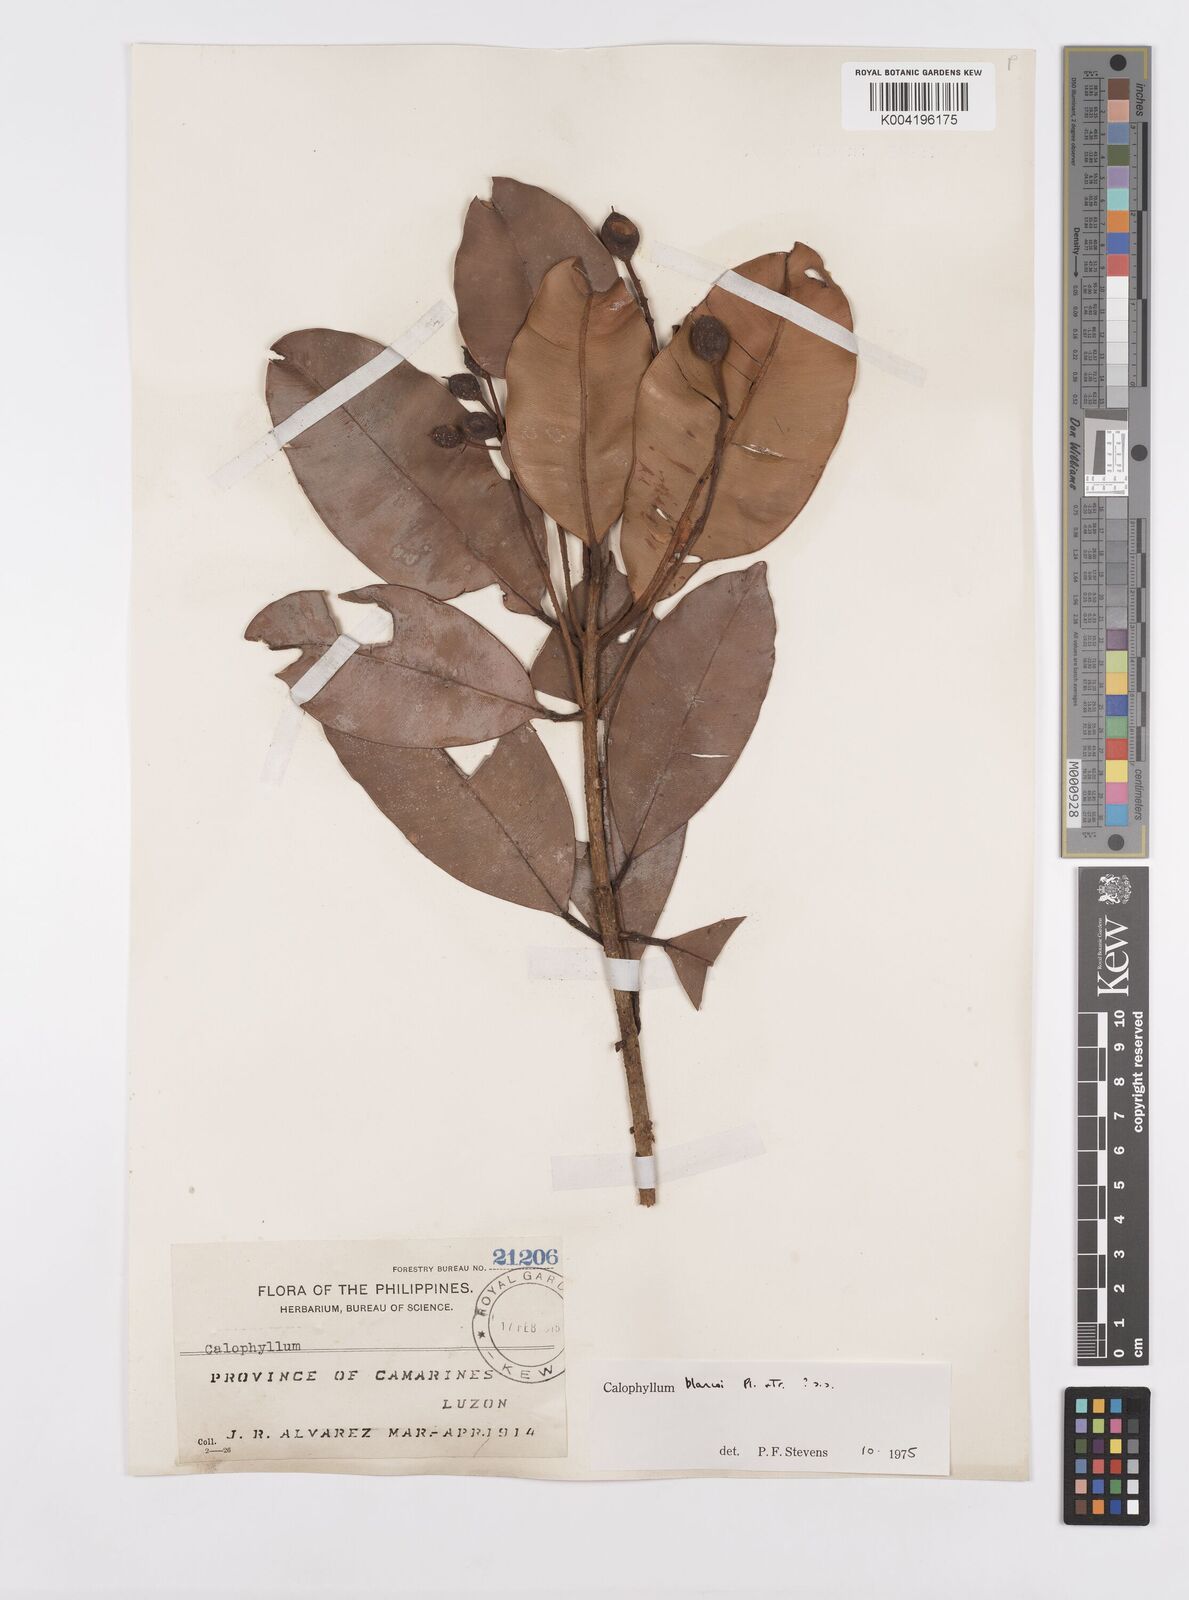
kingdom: Plantae
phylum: Tracheophyta
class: Magnoliopsida
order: Malpighiales
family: Calophyllaceae
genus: Calophyllum
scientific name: Calophyllum blancoi
